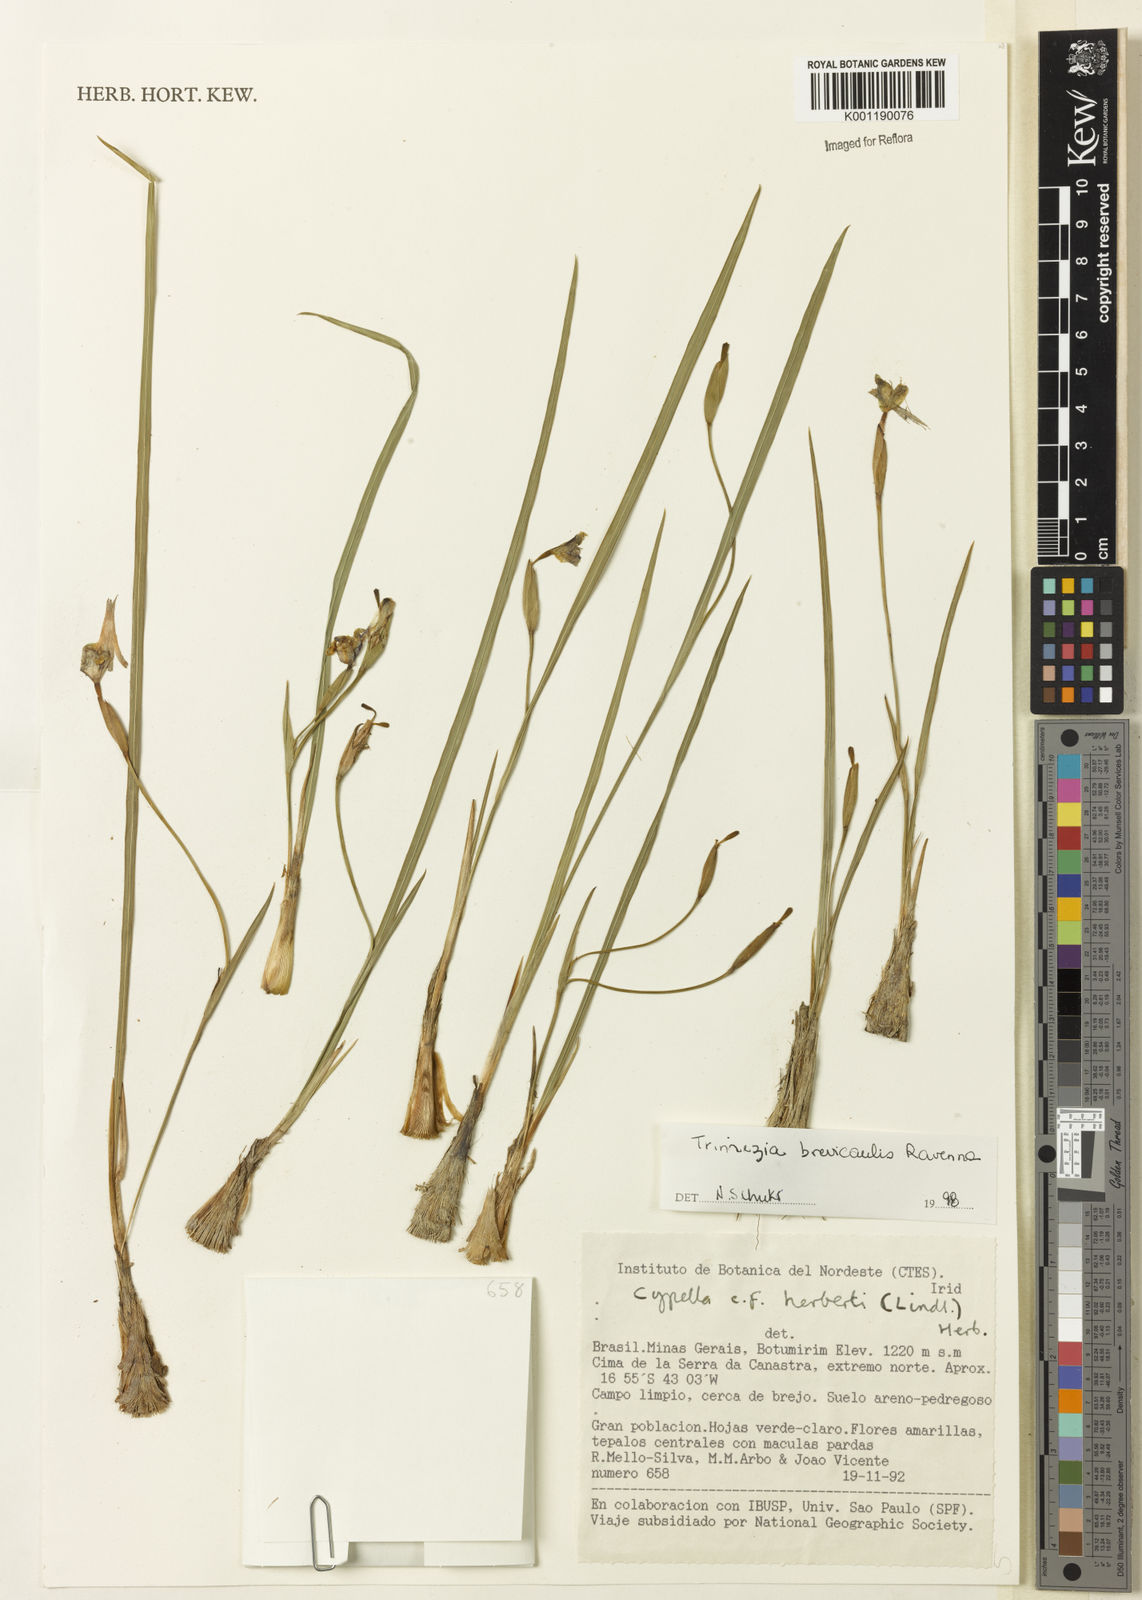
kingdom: Plantae
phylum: Tracheophyta
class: Liliopsida
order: Asparagales
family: Iridaceae
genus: Trimezia
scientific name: Trimezia brevicaulis
